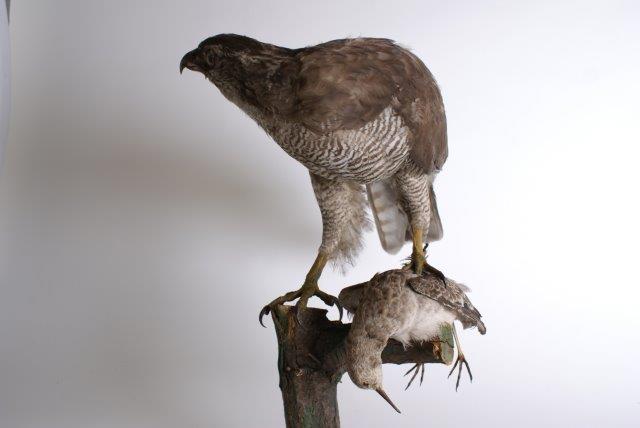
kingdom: Animalia
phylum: Chordata
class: Aves
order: Accipitriformes
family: Accipitridae
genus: Accipiter
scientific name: Accipiter gentilis
